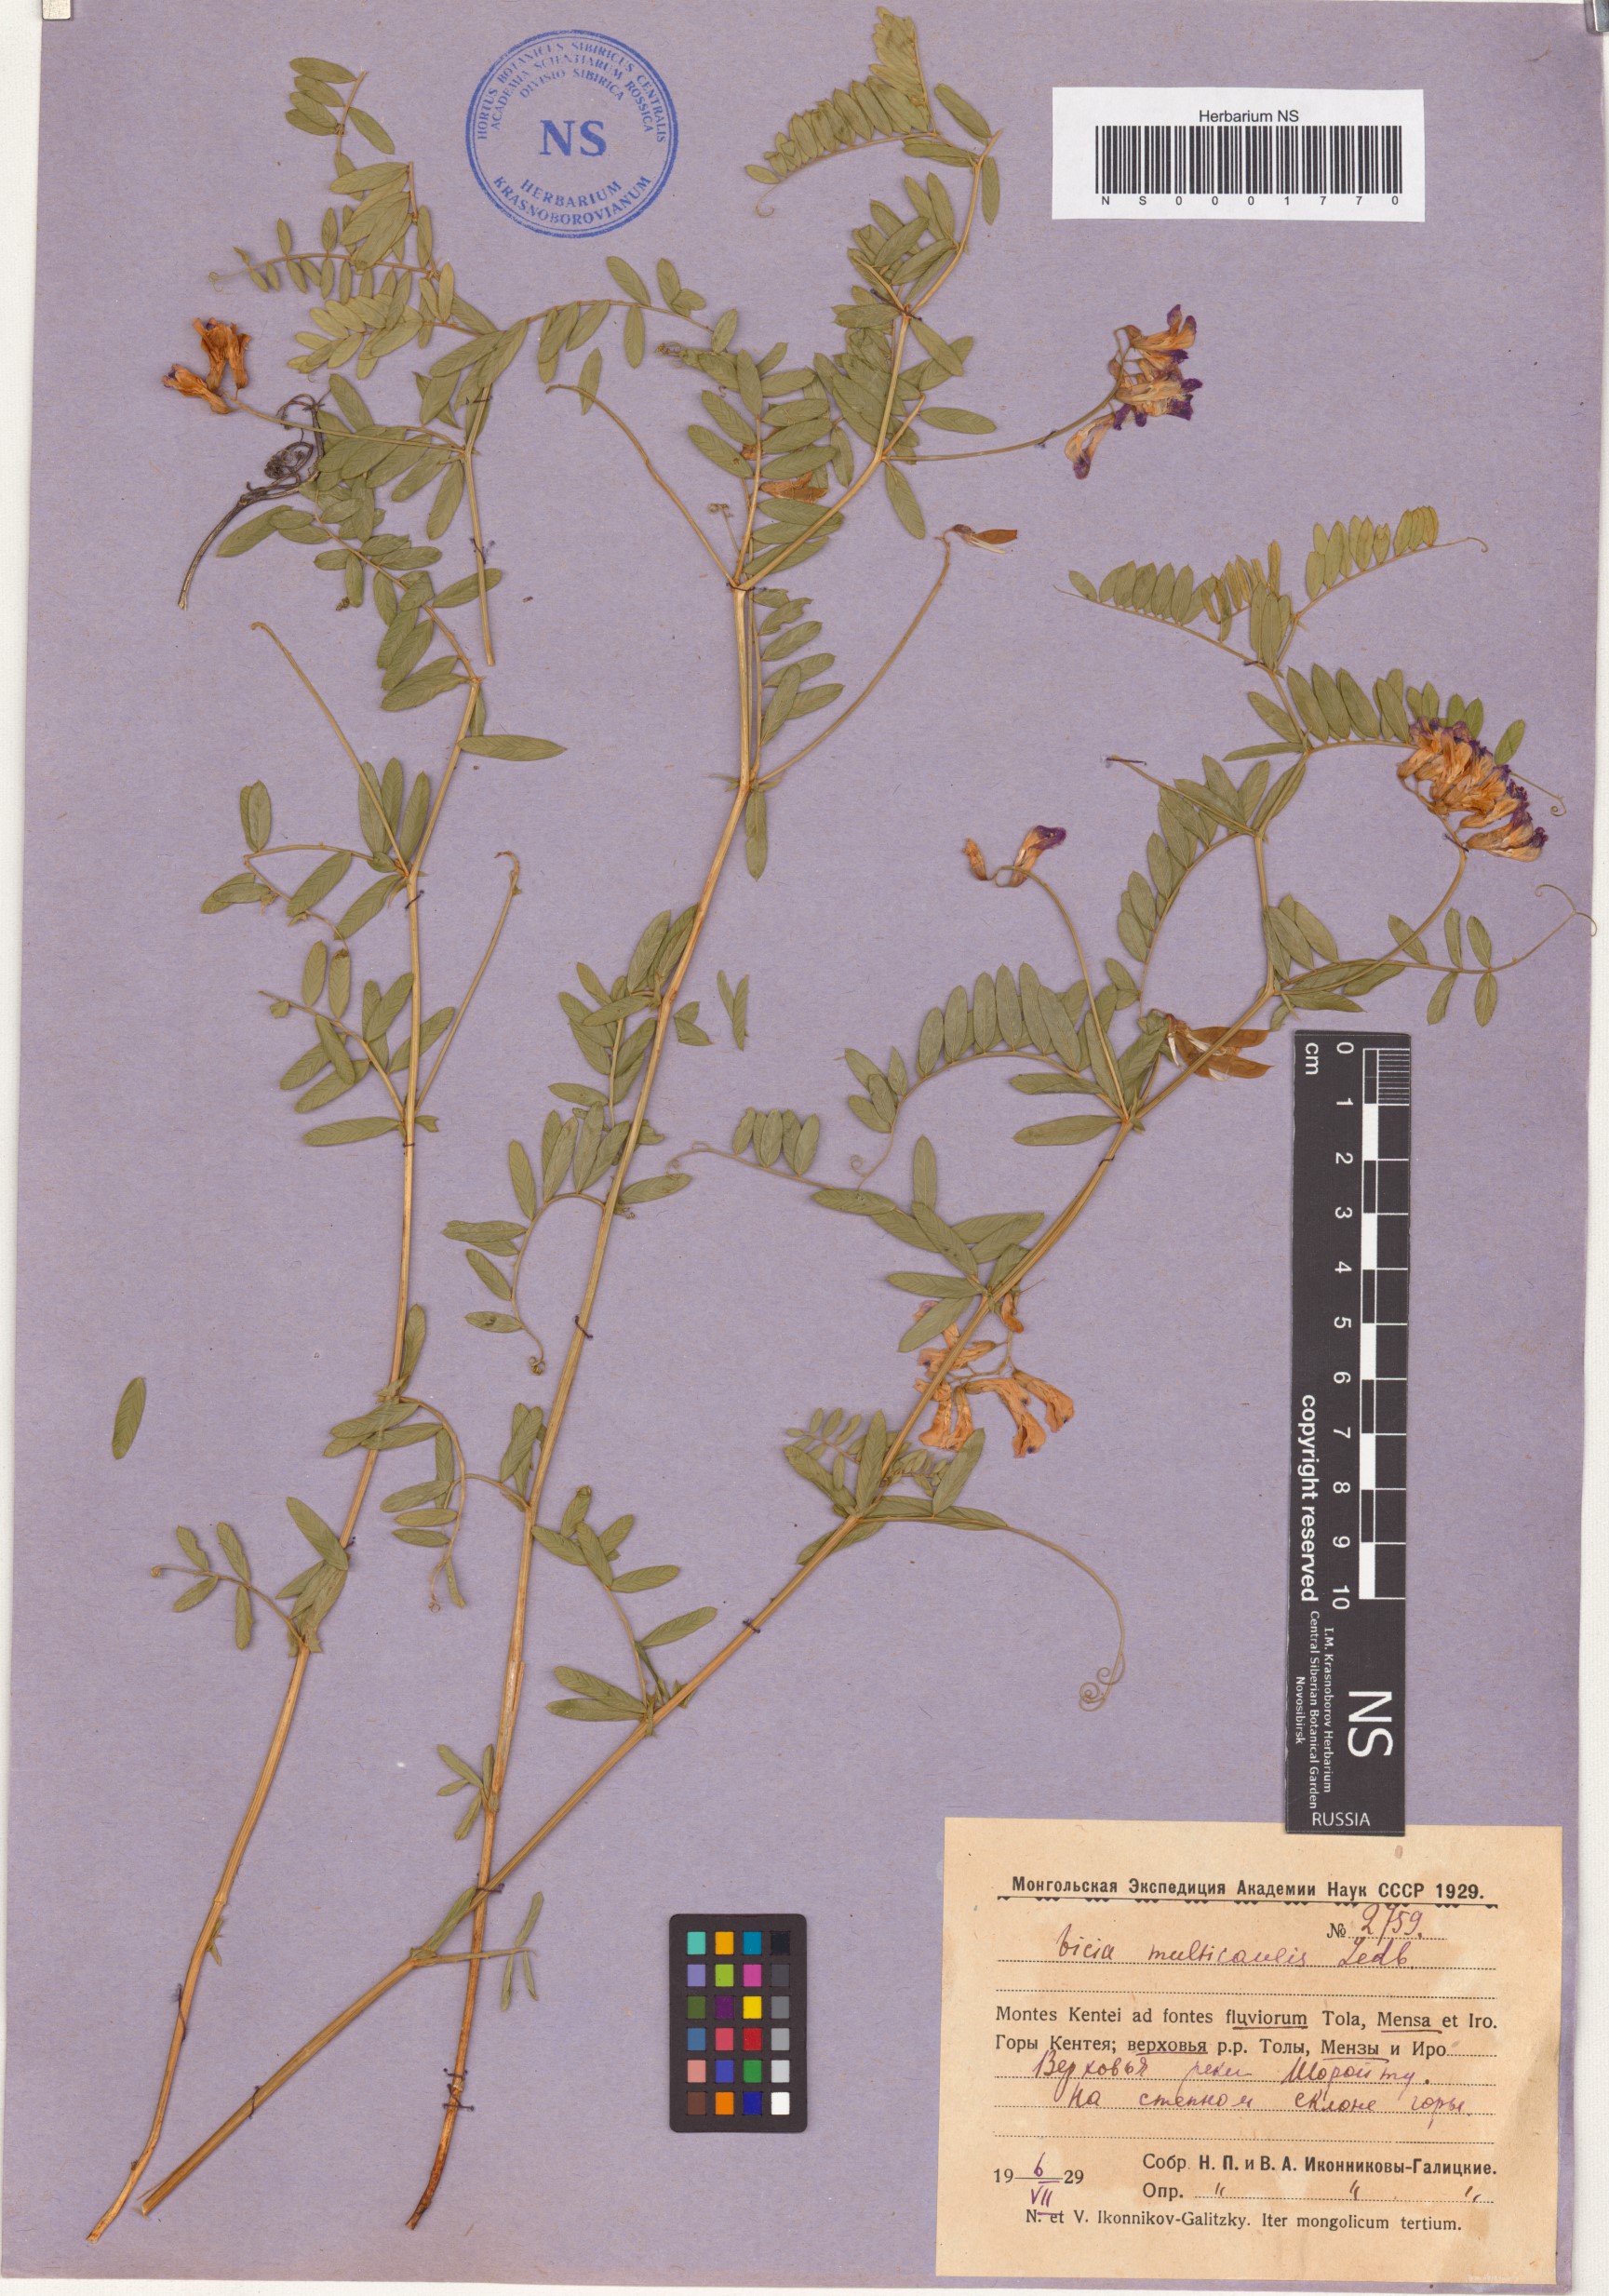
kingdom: Plantae
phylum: Tracheophyta
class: Magnoliopsida
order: Fabales
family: Fabaceae
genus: Vicia
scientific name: Vicia multicaulis
